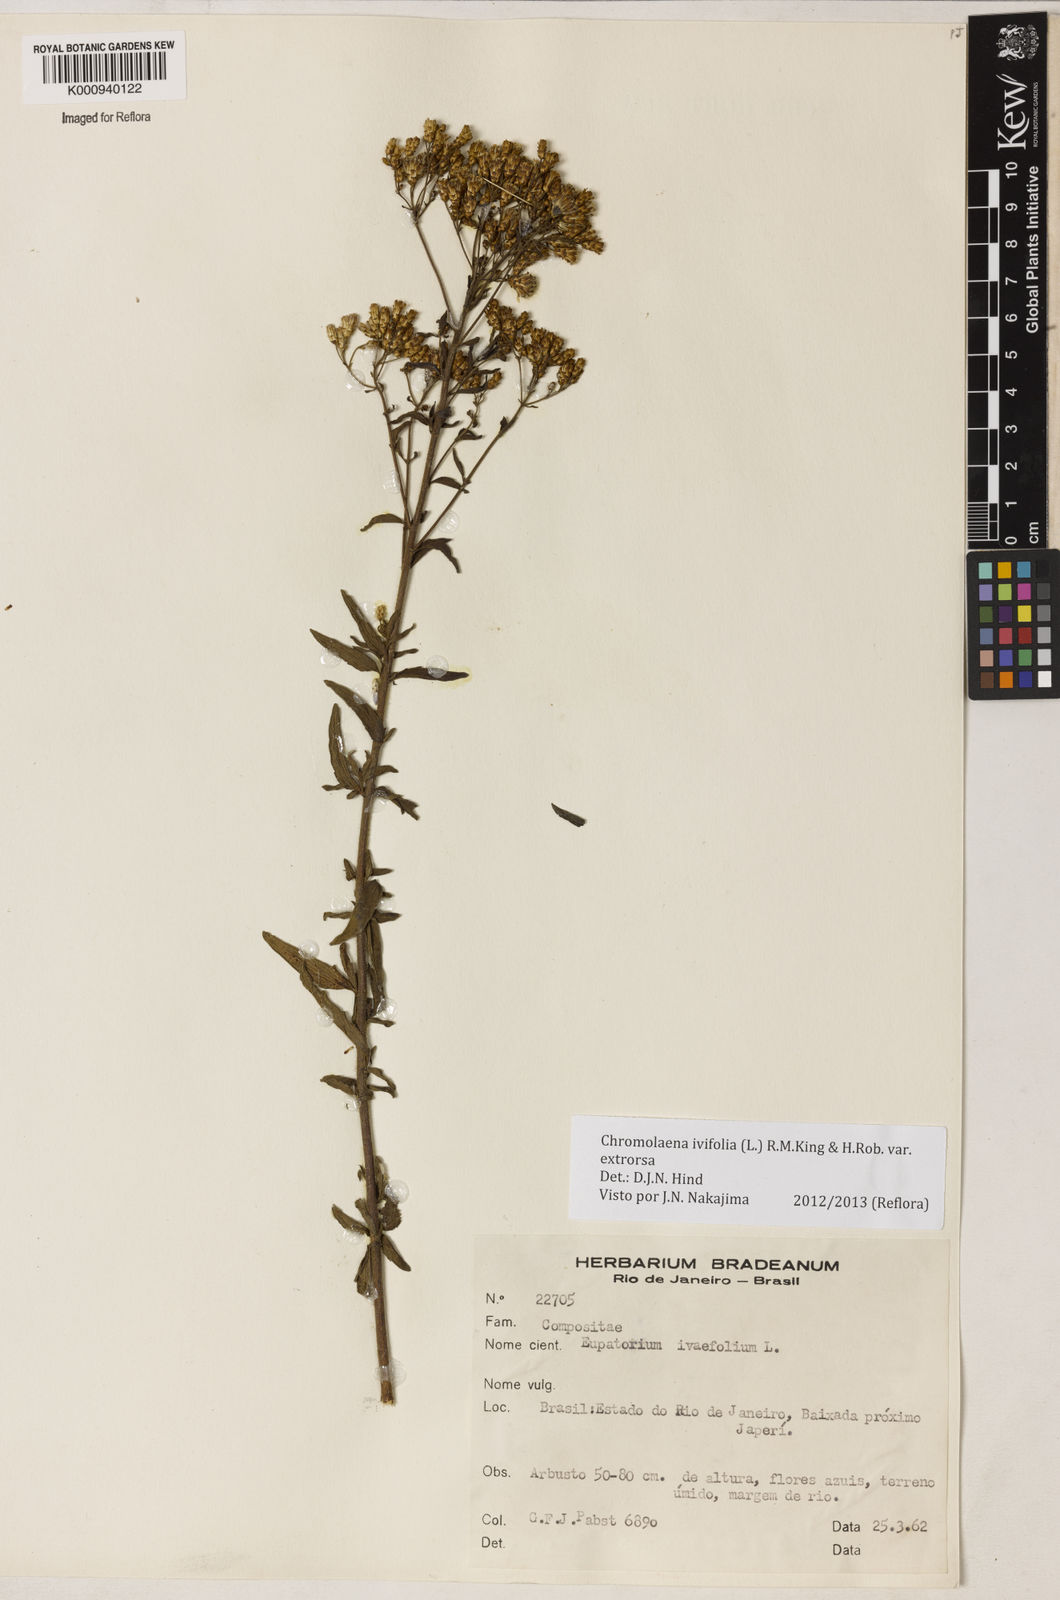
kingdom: Plantae
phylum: Tracheophyta
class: Magnoliopsida
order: Asterales
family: Asteraceae
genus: Chromolaena
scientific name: Chromolaena ivifolia
